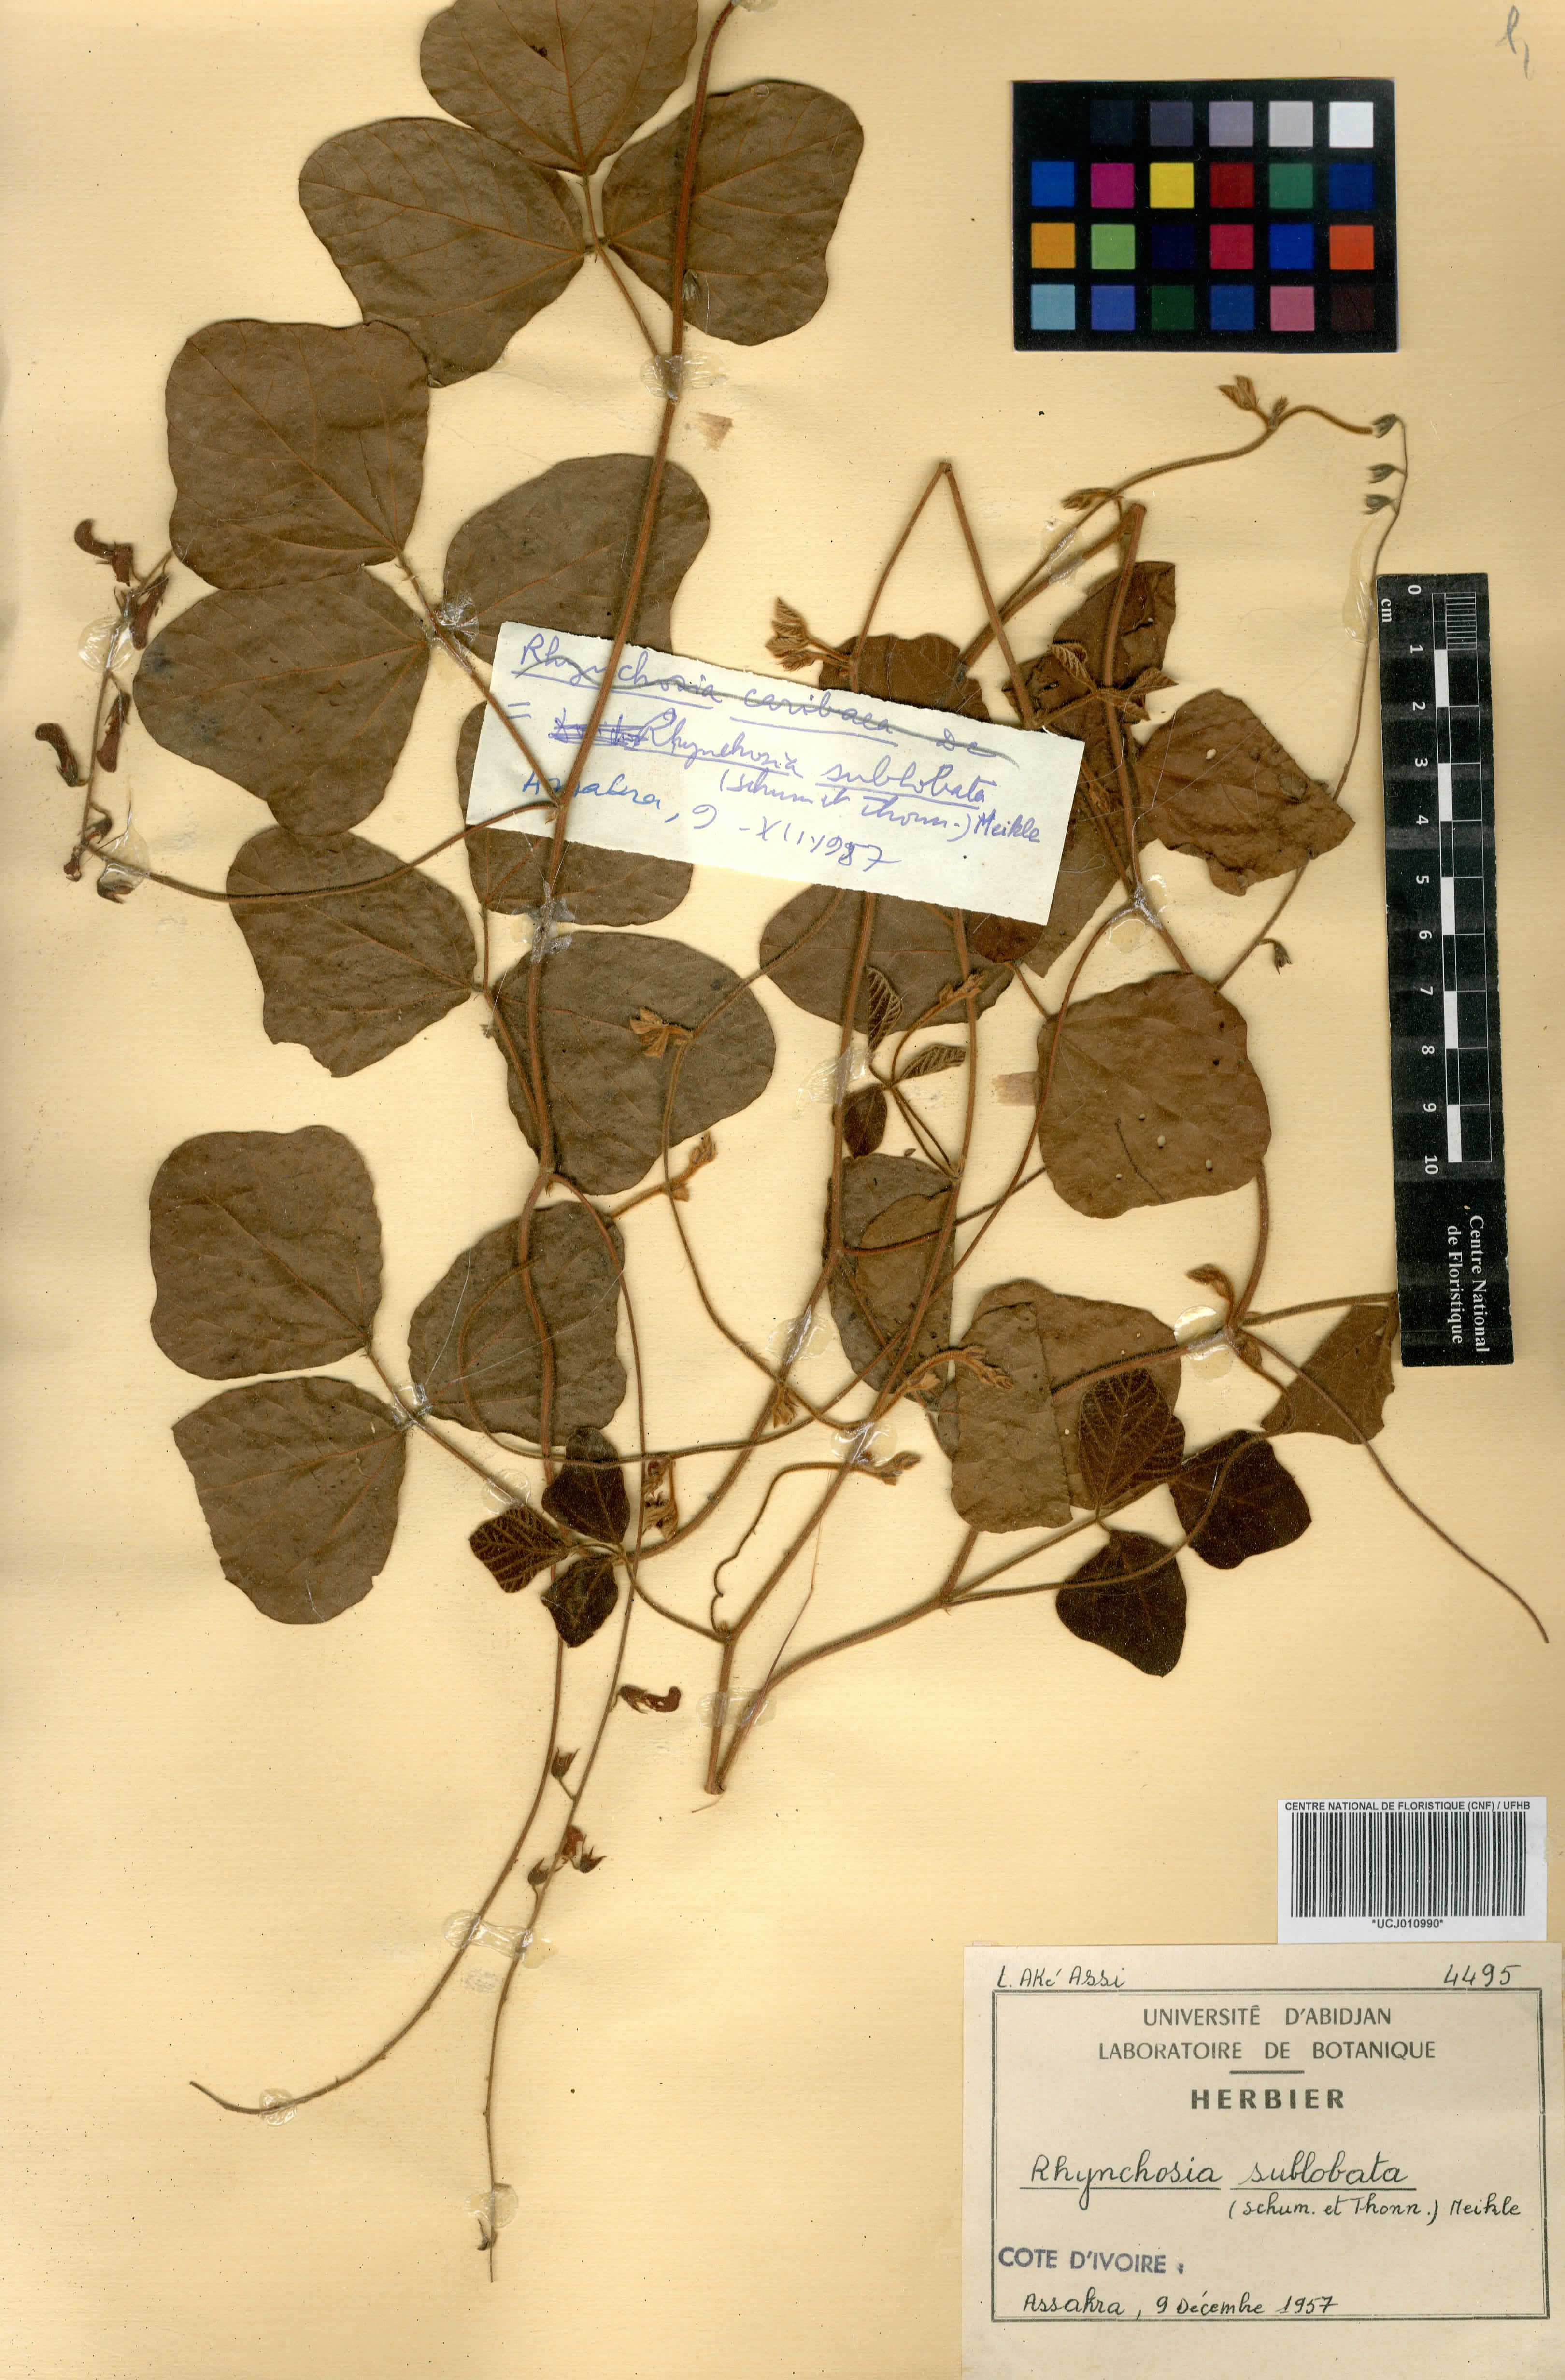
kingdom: Plantae
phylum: Tracheophyta
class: Magnoliopsida
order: Fabales
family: Fabaceae
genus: Rhynchosia
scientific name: Rhynchosia sublobata
